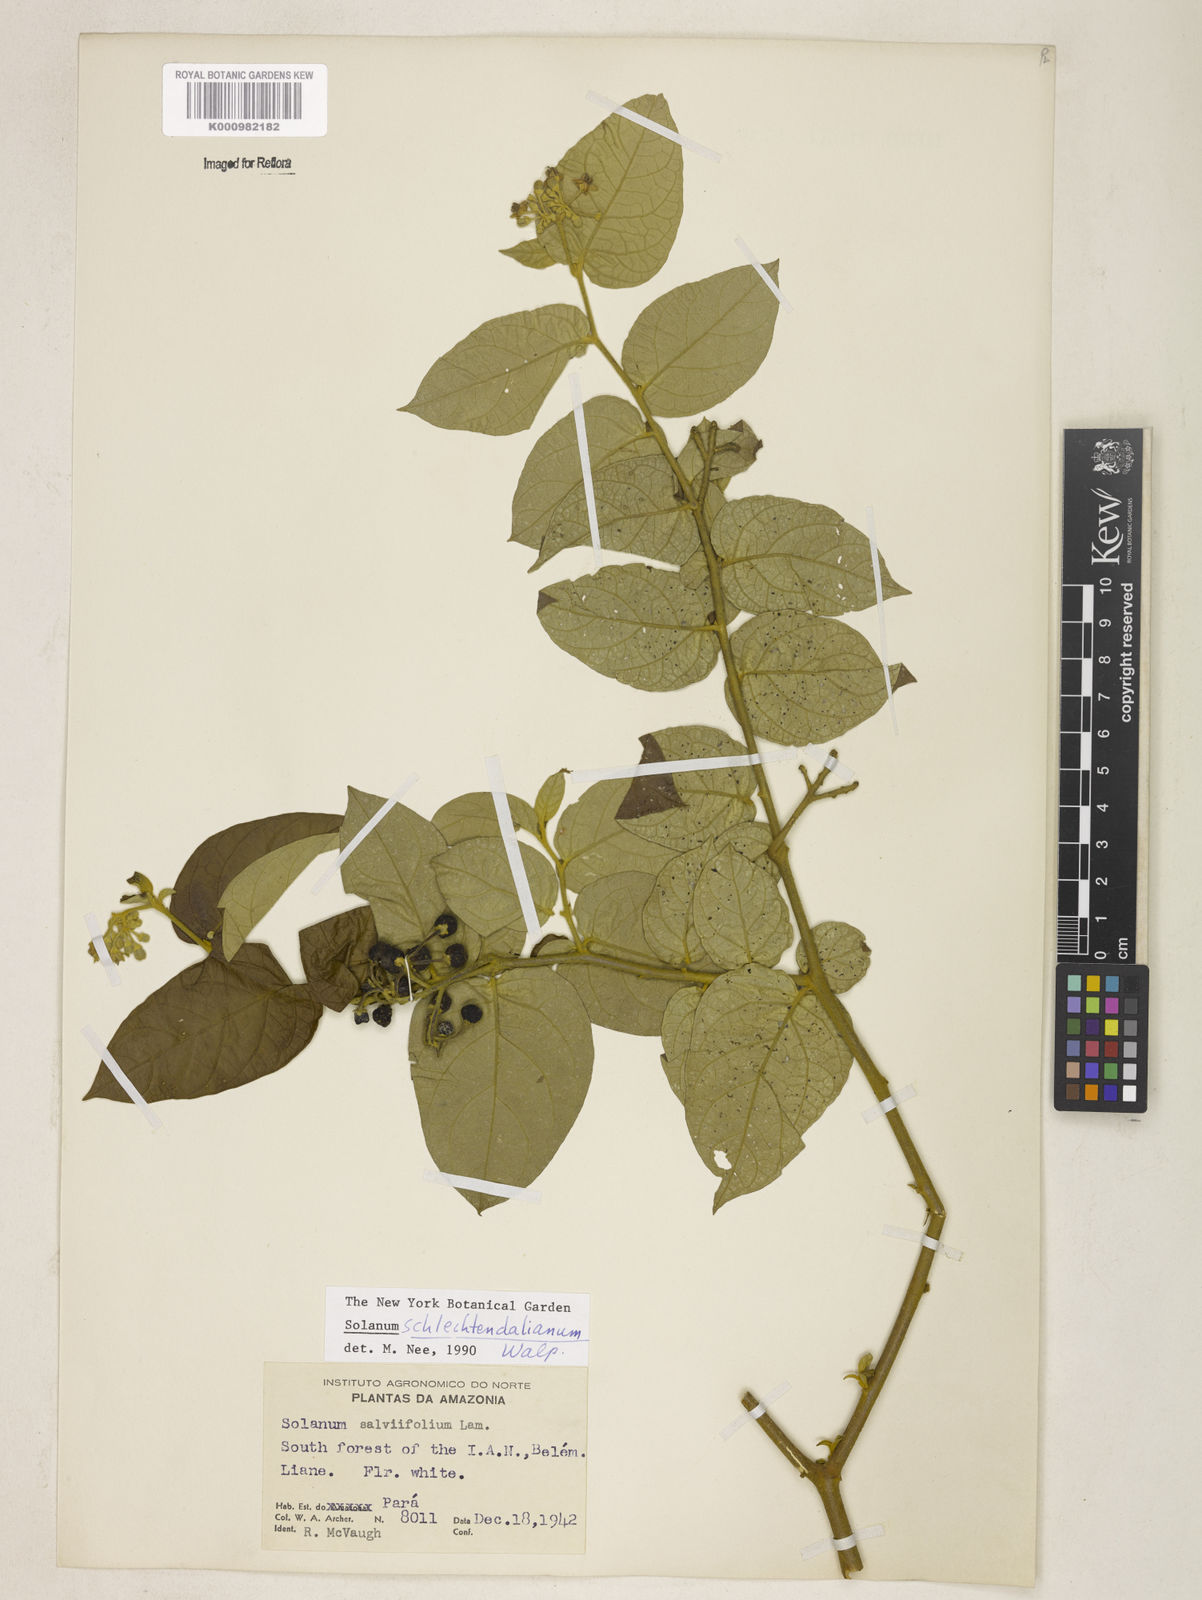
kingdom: Plantae
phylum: Tracheophyta
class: Magnoliopsida
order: Solanales
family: Solanaceae
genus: Solanum
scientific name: Solanum schlechtendalianum
